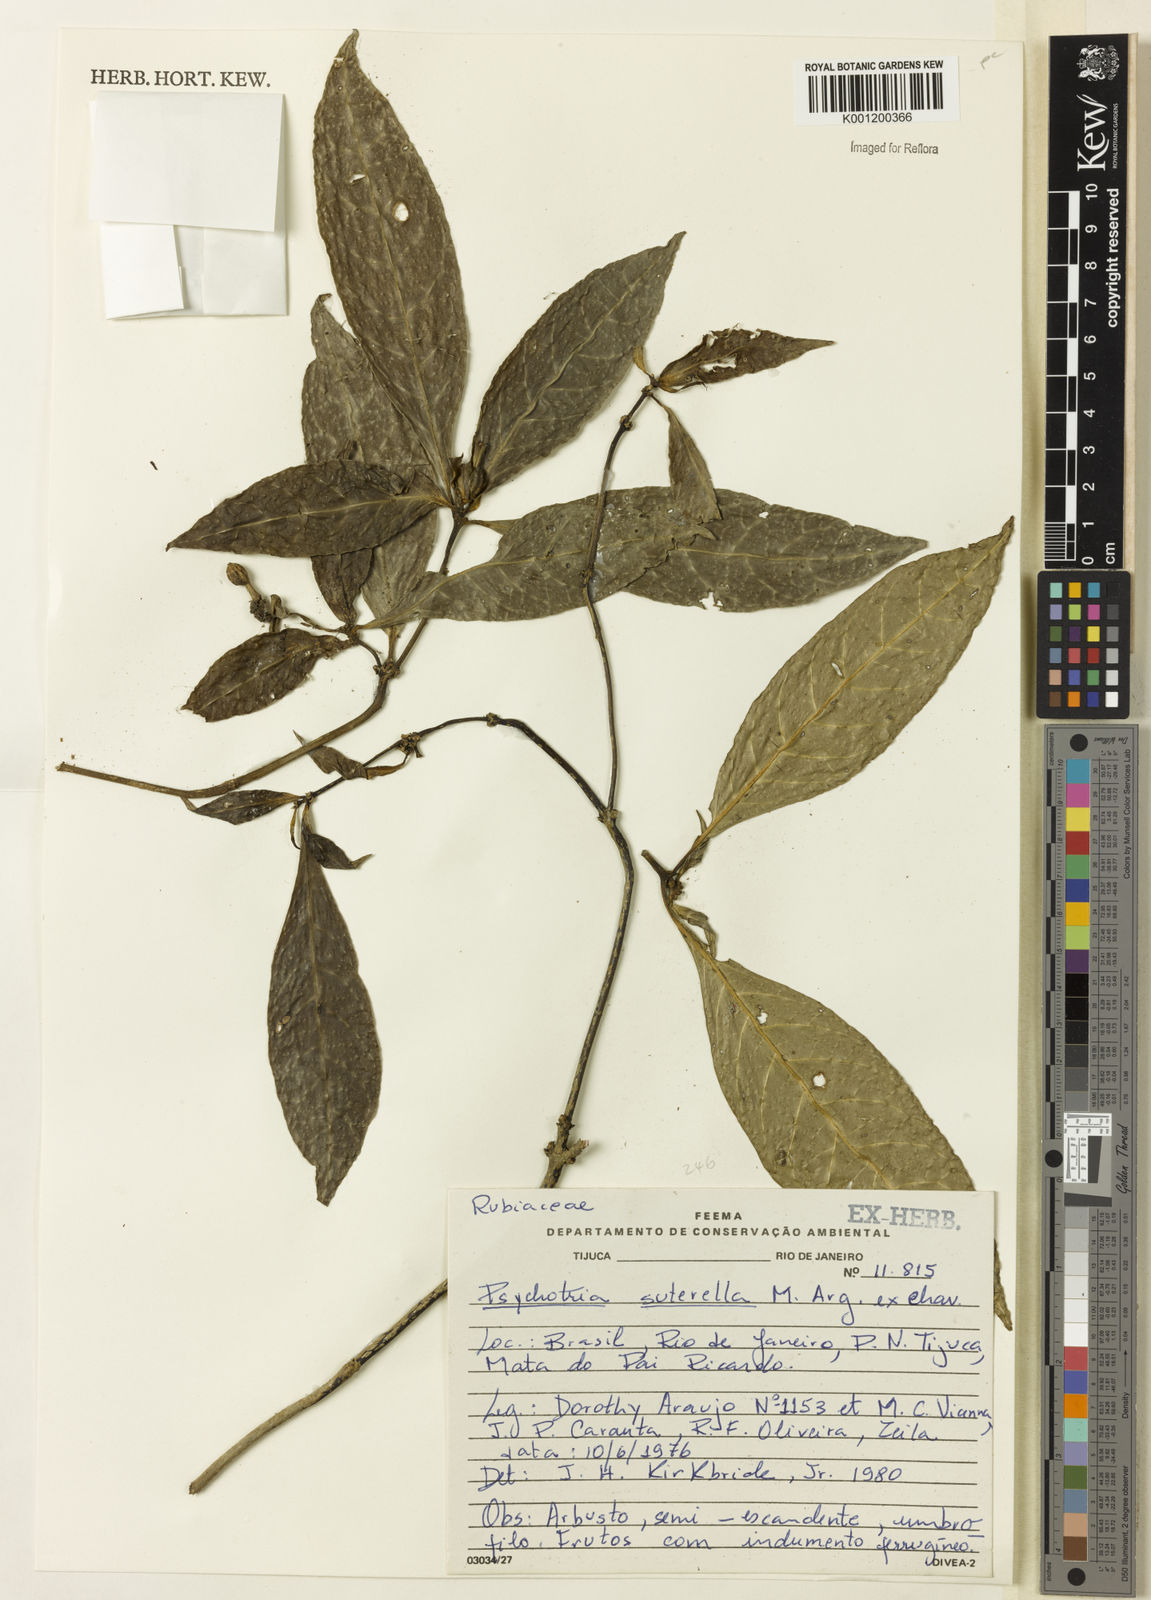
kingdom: Plantae
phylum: Tracheophyta
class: Magnoliopsida
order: Gentianales
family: Rubiaceae
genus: Psychotria
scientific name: Psychotria
